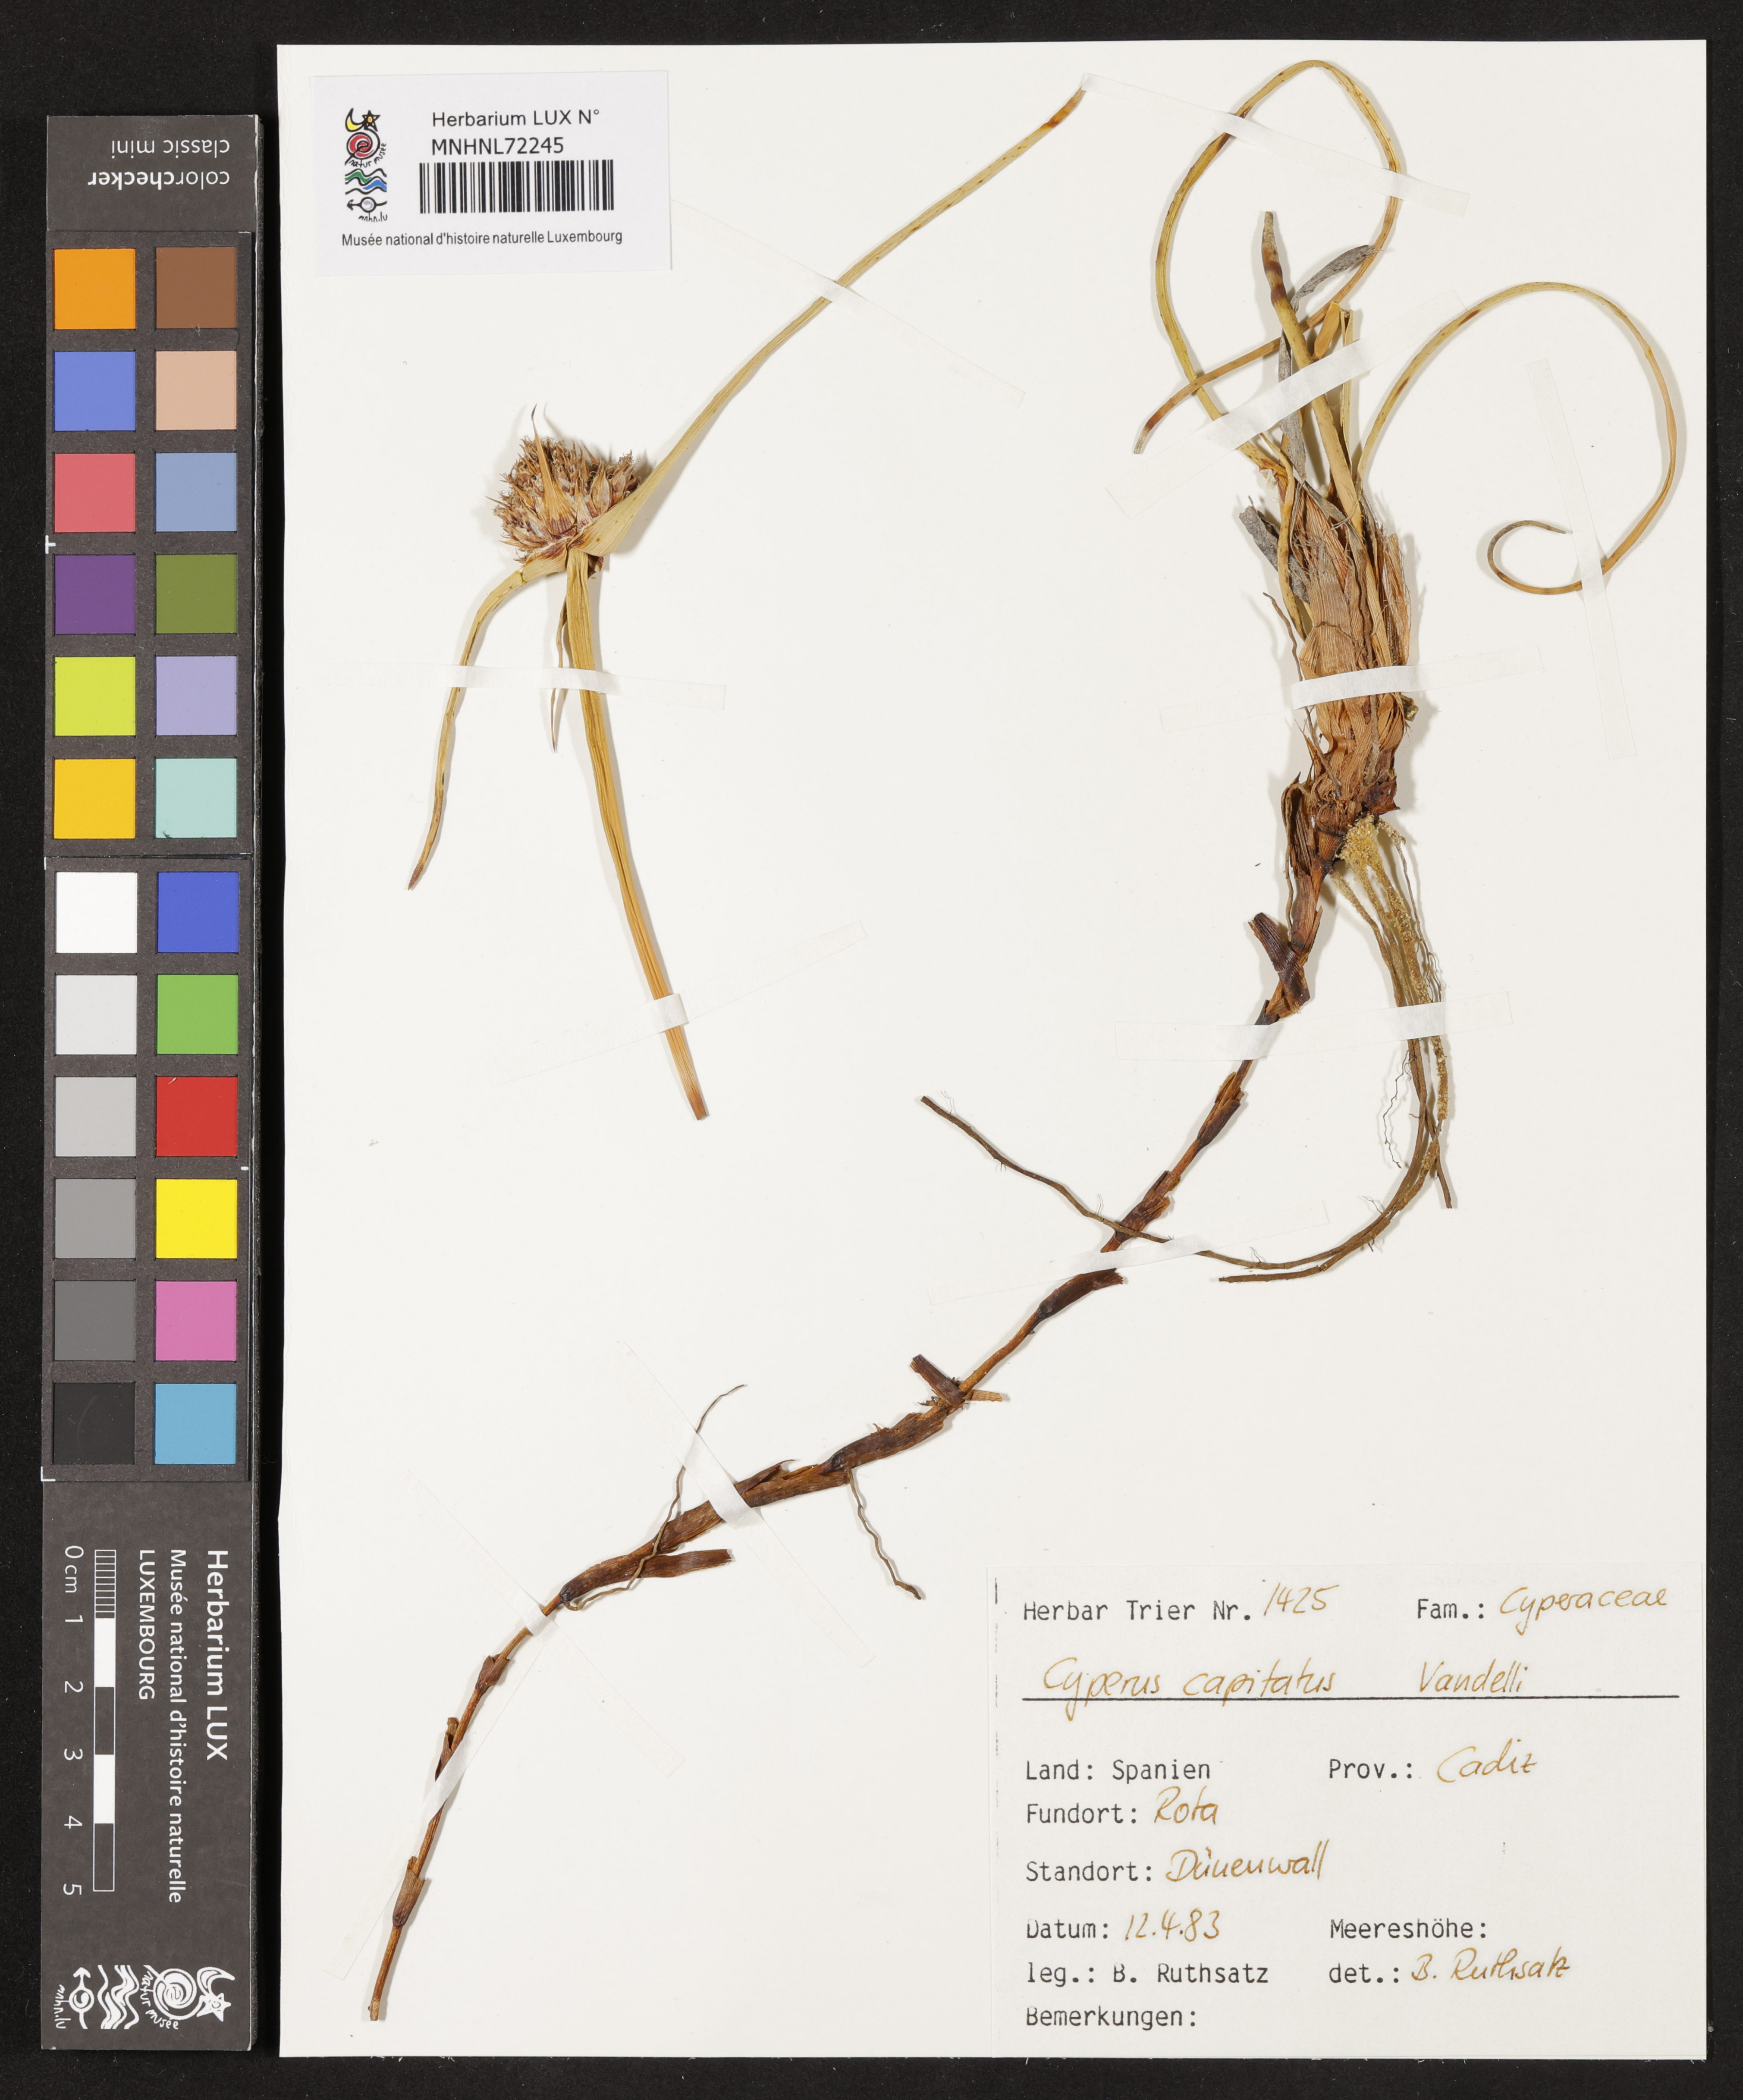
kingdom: Plantae
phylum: Tracheophyta
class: Liliopsida
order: Poales
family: Cyperaceae
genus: Cyperus
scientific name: Cyperus capitatus
